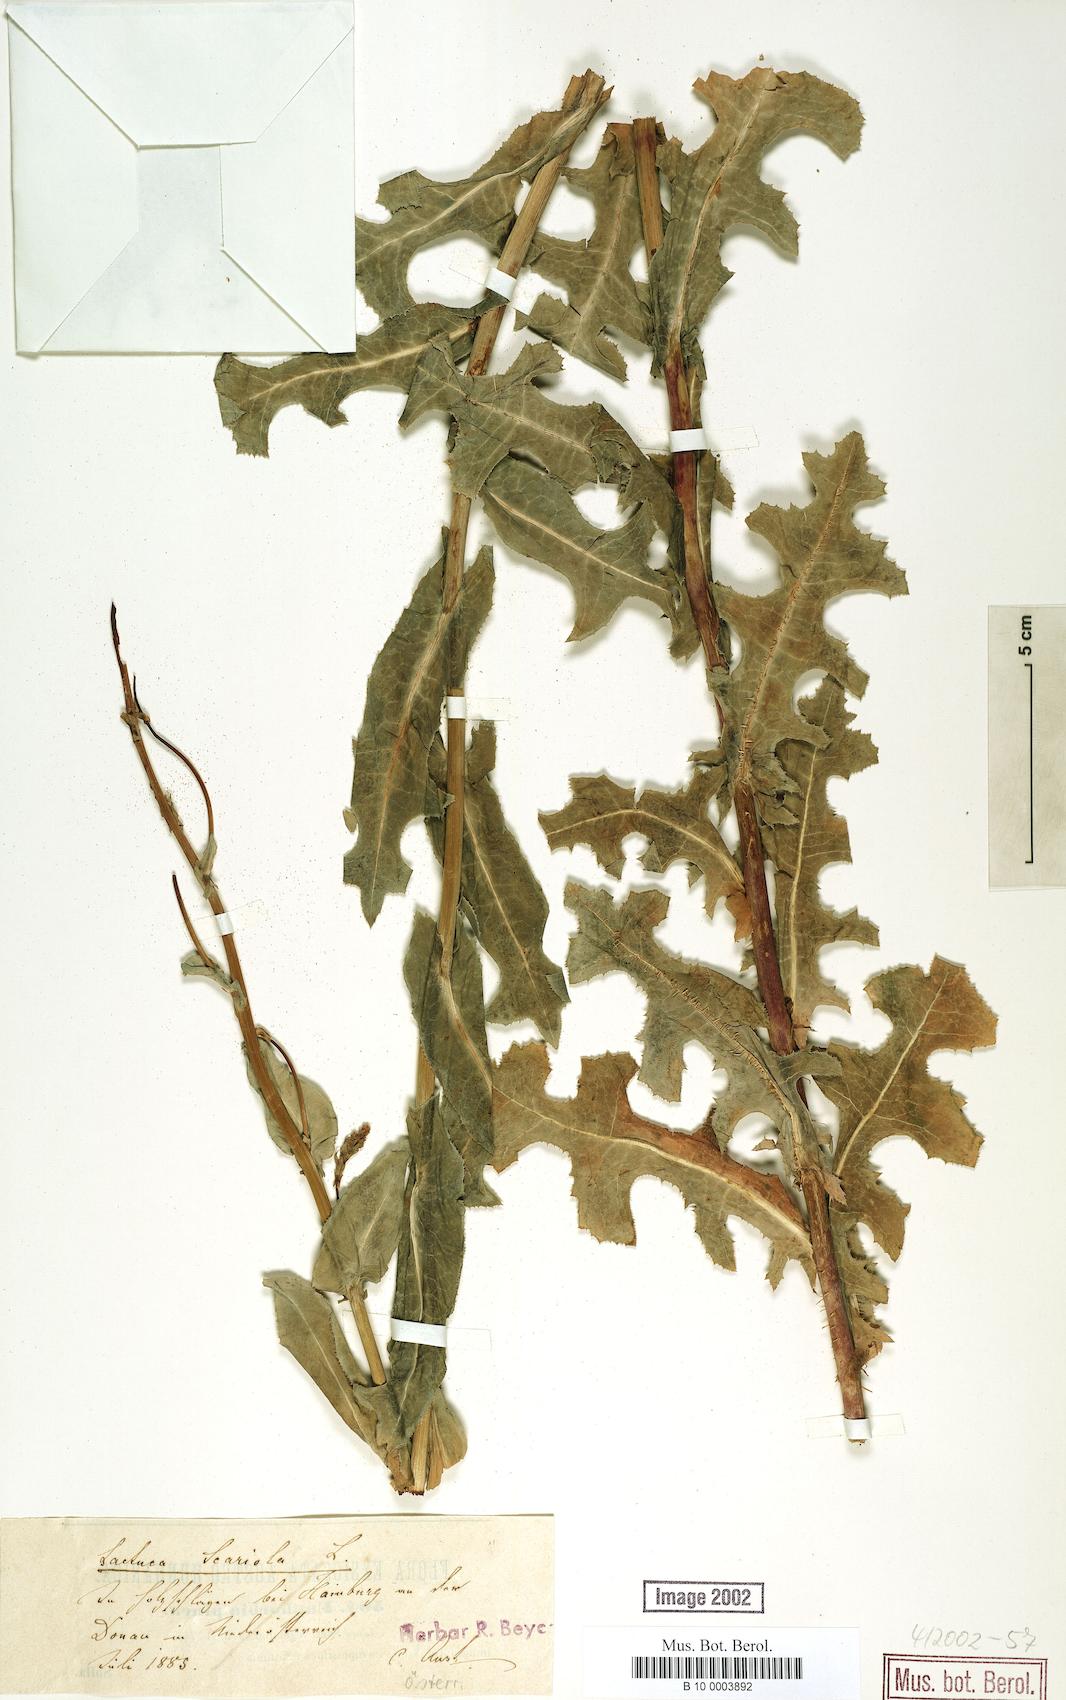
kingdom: Plantae
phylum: Tracheophyta
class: Magnoliopsida
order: Asterales
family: Asteraceae
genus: Lactuca
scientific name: Lactuca serriola
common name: Prickly lettuce
